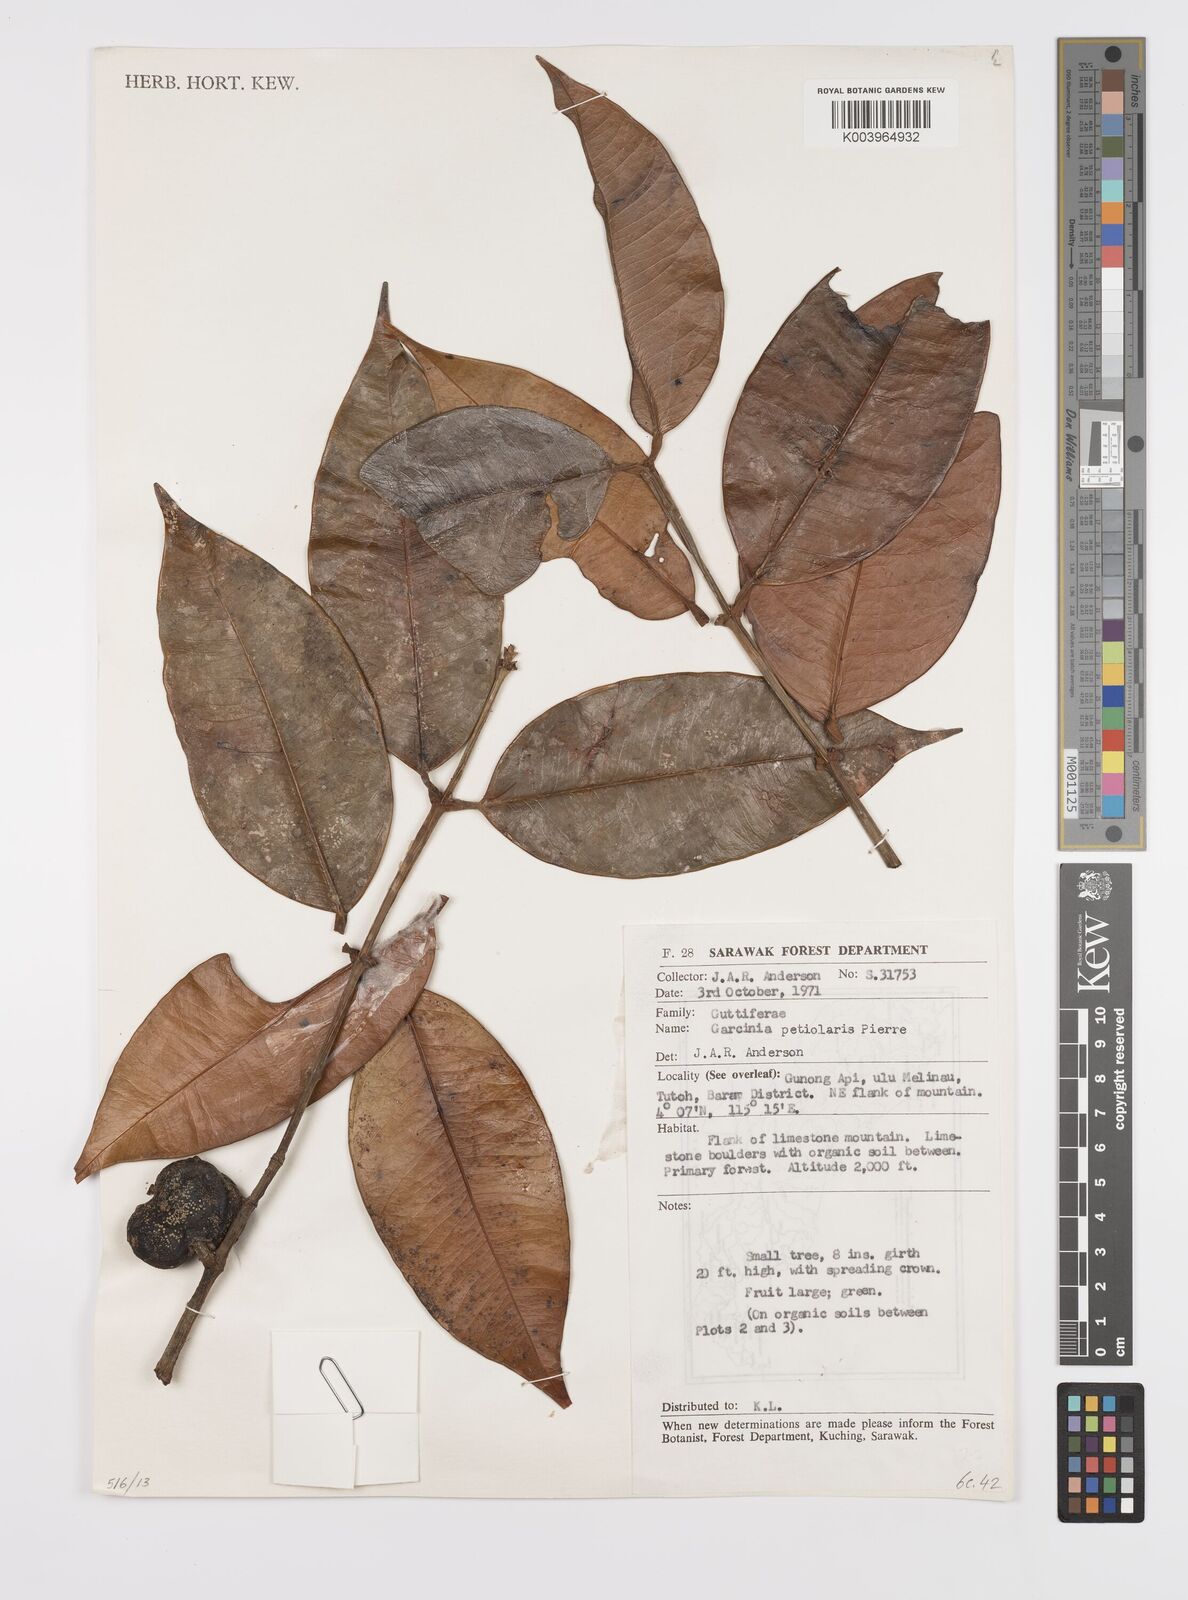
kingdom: Plantae
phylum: Tracheophyta
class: Magnoliopsida
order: Malpighiales
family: Clusiaceae
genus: Garcinia
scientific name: Garcinia petiolaris
